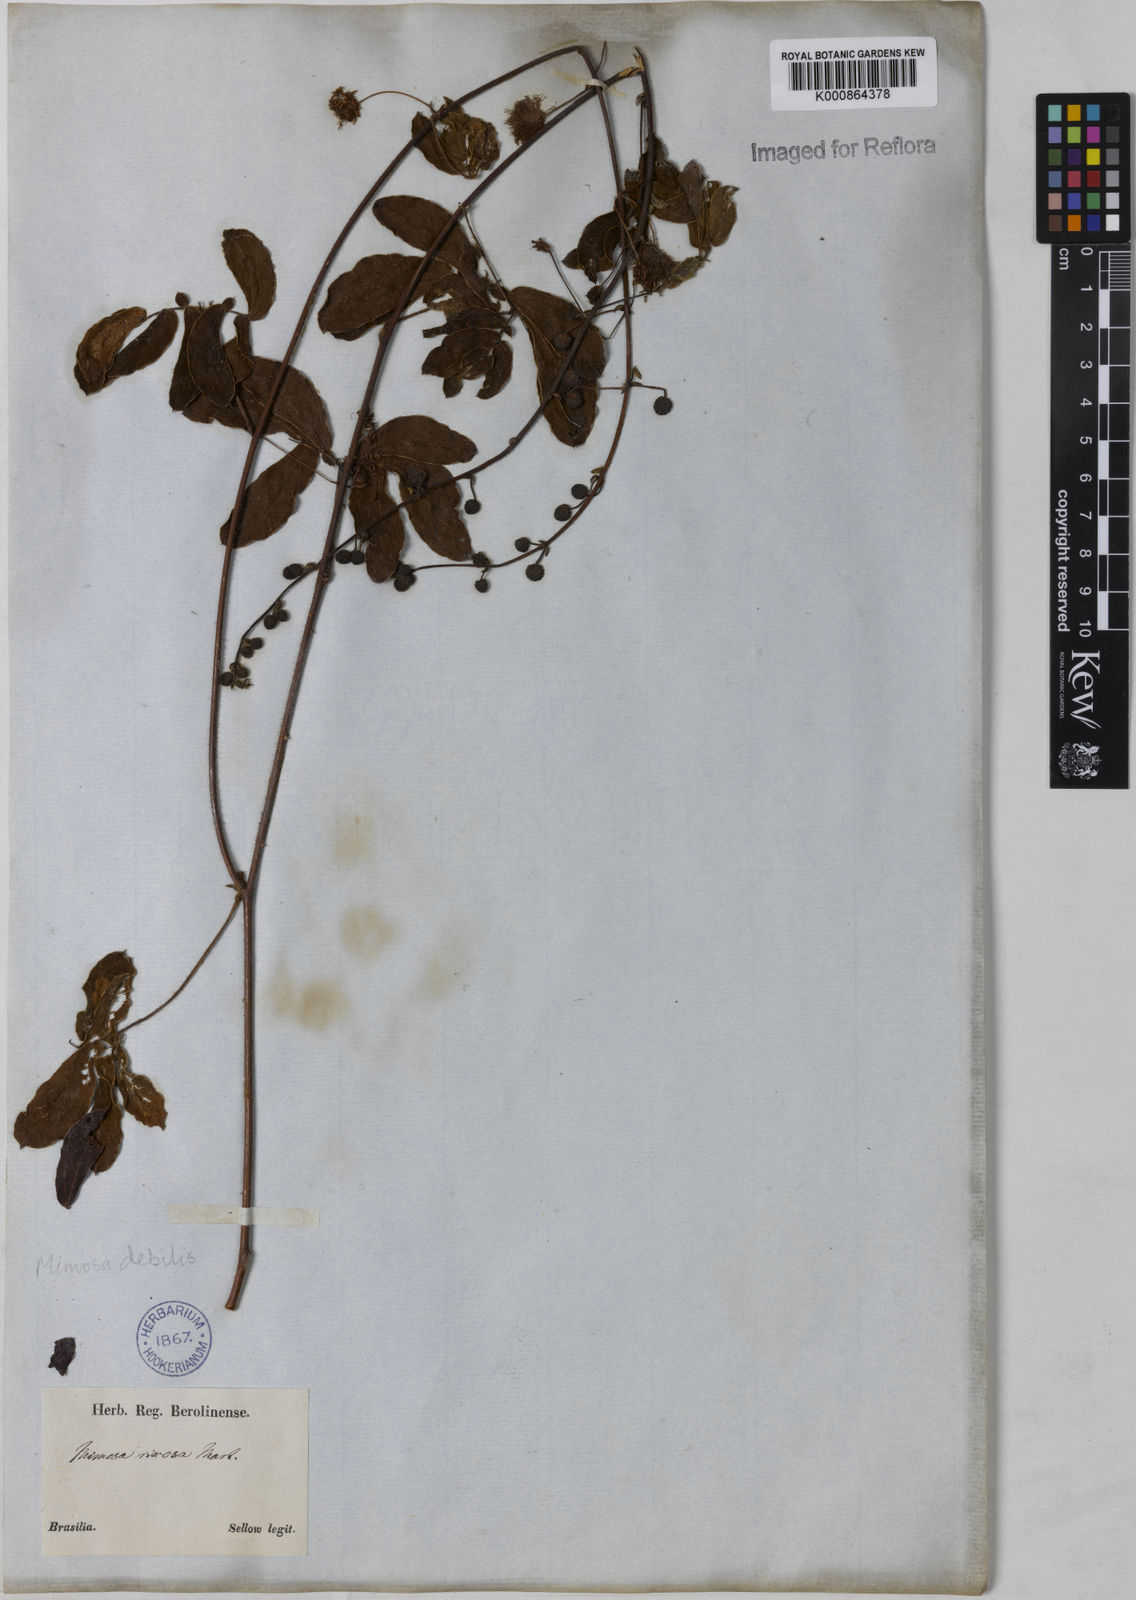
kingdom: Plantae
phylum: Tracheophyta
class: Magnoliopsida
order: Fabales
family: Fabaceae
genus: Mimosa
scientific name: Mimosa
